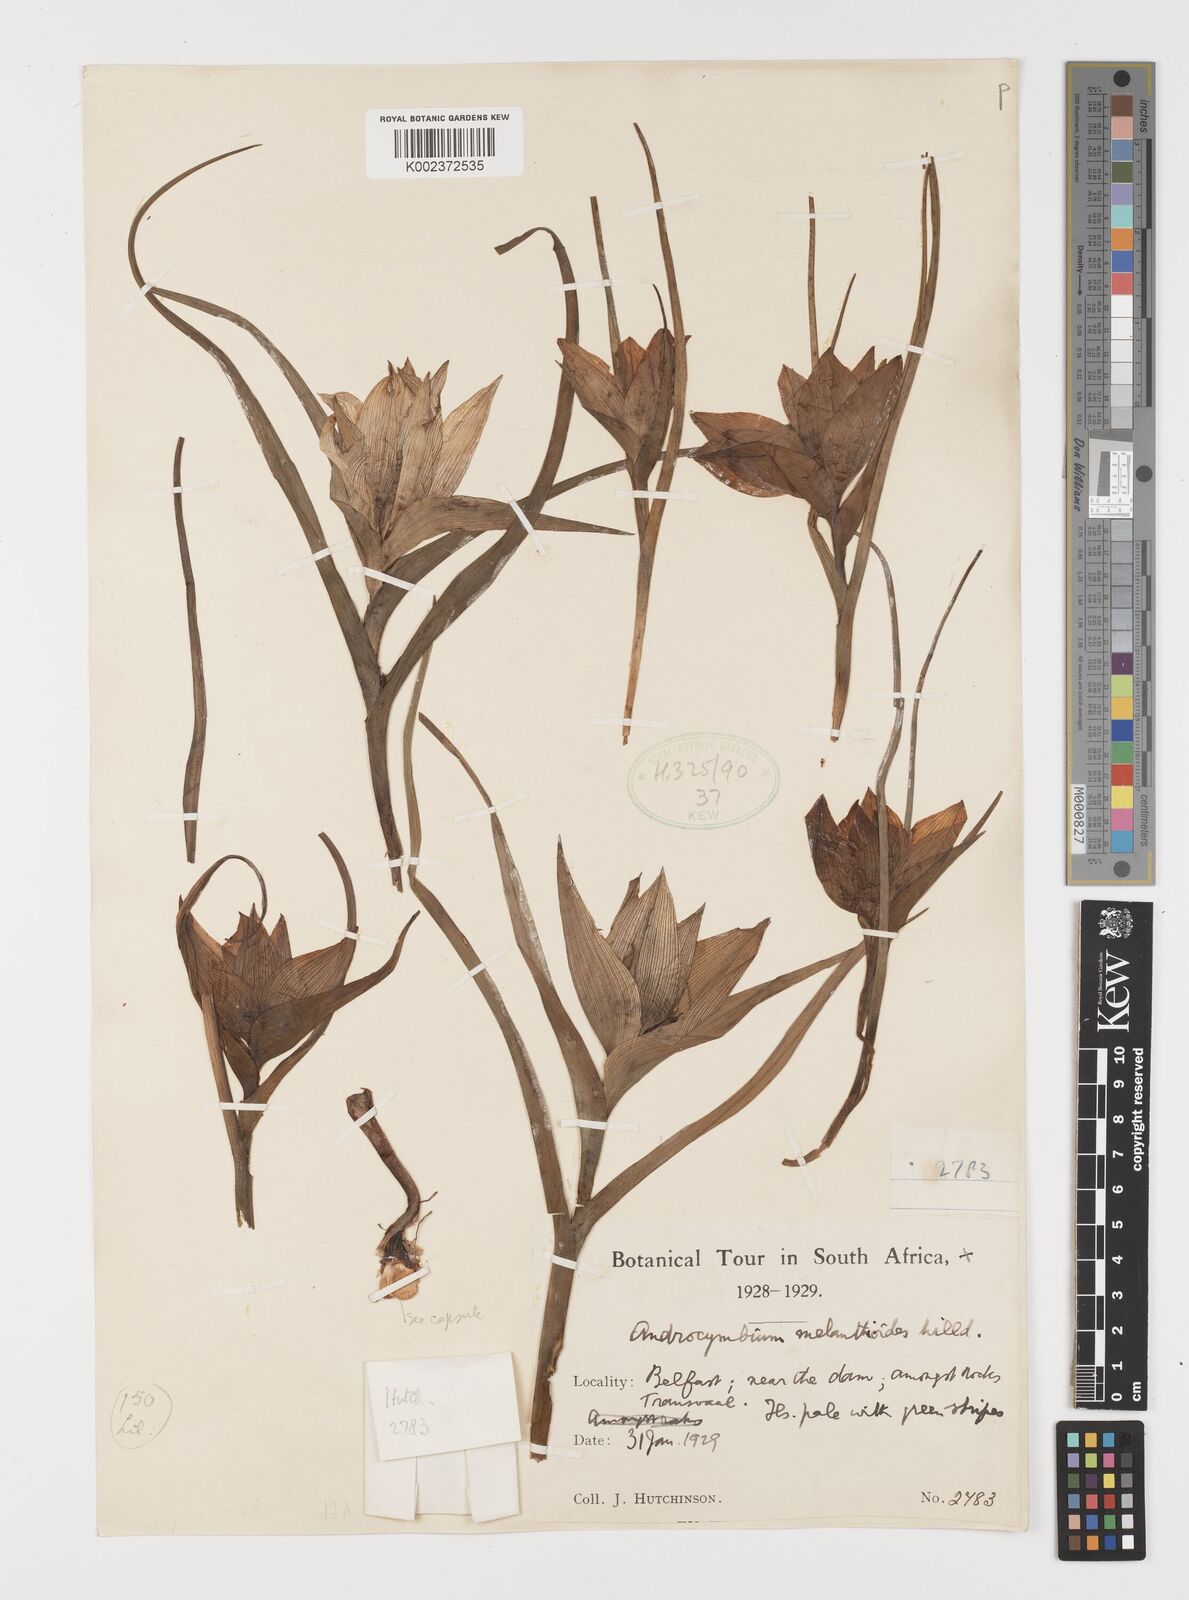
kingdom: Plantae
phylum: Tracheophyta
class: Liliopsida
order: Liliales
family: Colchicaceae
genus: Colchicum
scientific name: Colchicum melanthioides
